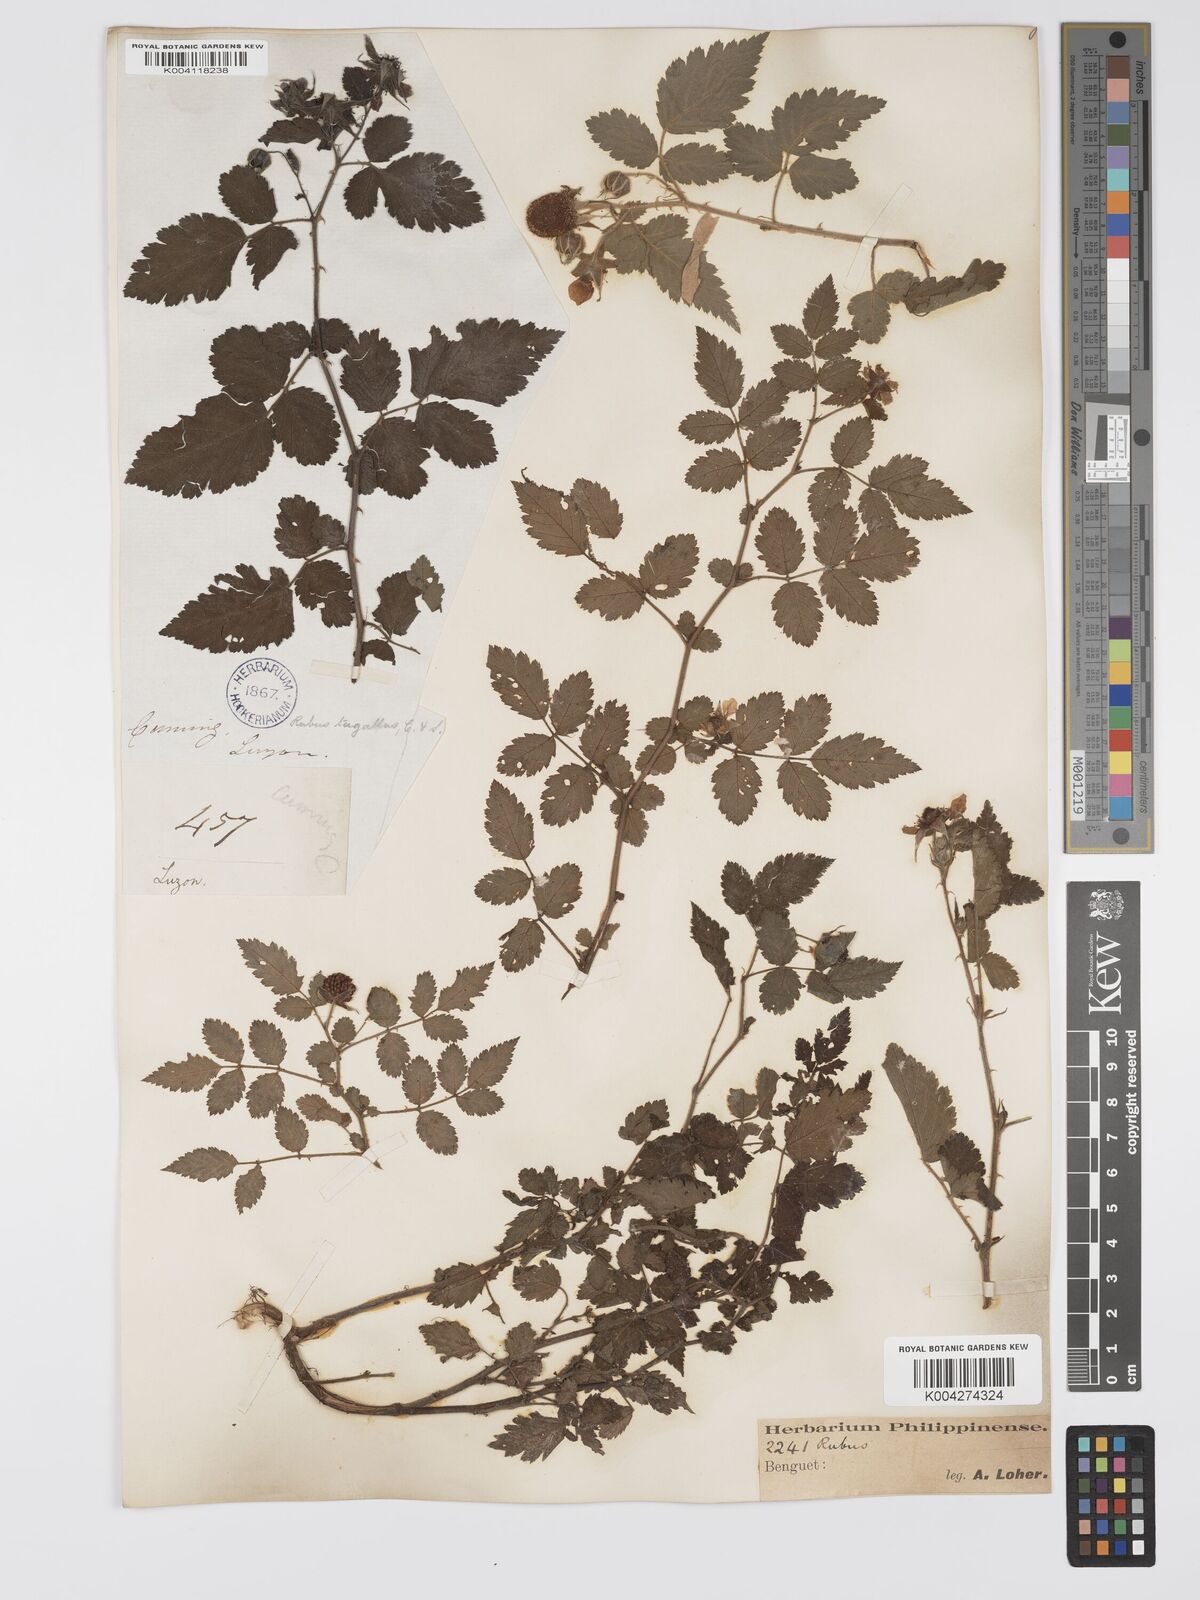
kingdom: Plantae
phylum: Tracheophyta
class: Magnoliopsida
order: Rosales
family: Rosaceae
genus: Rubus
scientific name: Rubus
